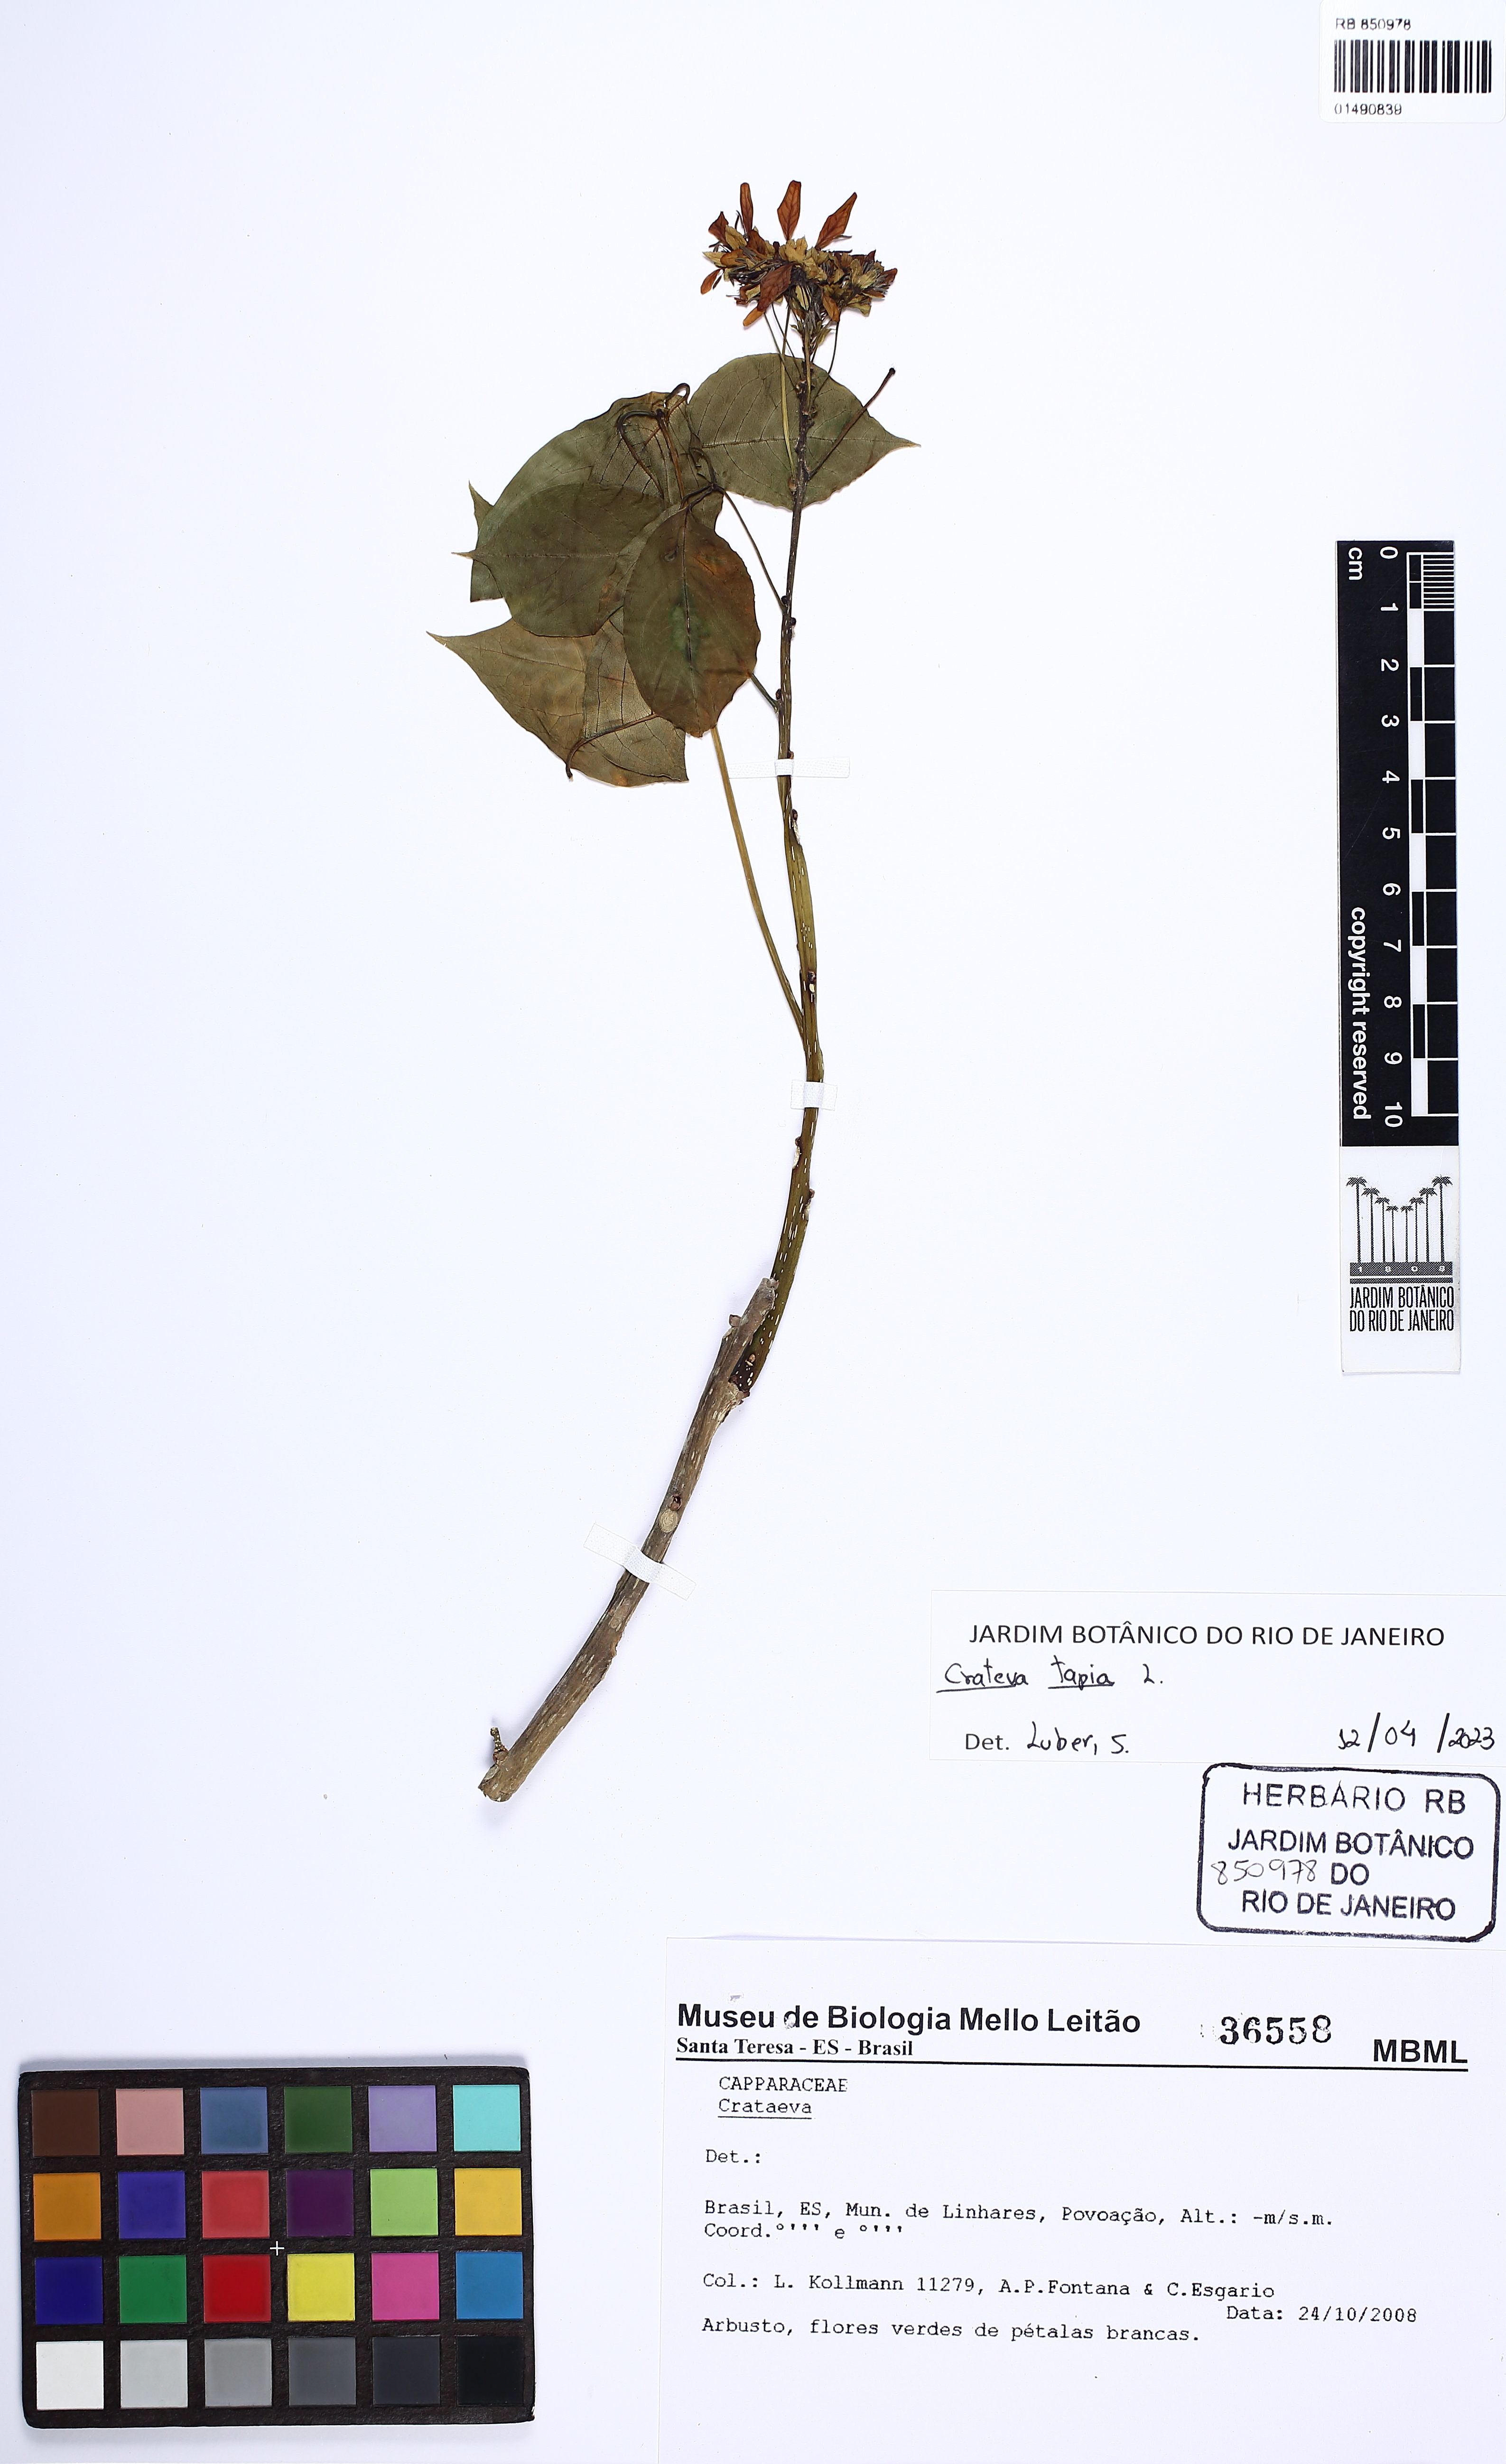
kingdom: Plantae
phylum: Tracheophyta
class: Magnoliopsida
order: Brassicales
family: Capparaceae
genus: Crateva
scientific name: Crateva tapia
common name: Garlic-pear
